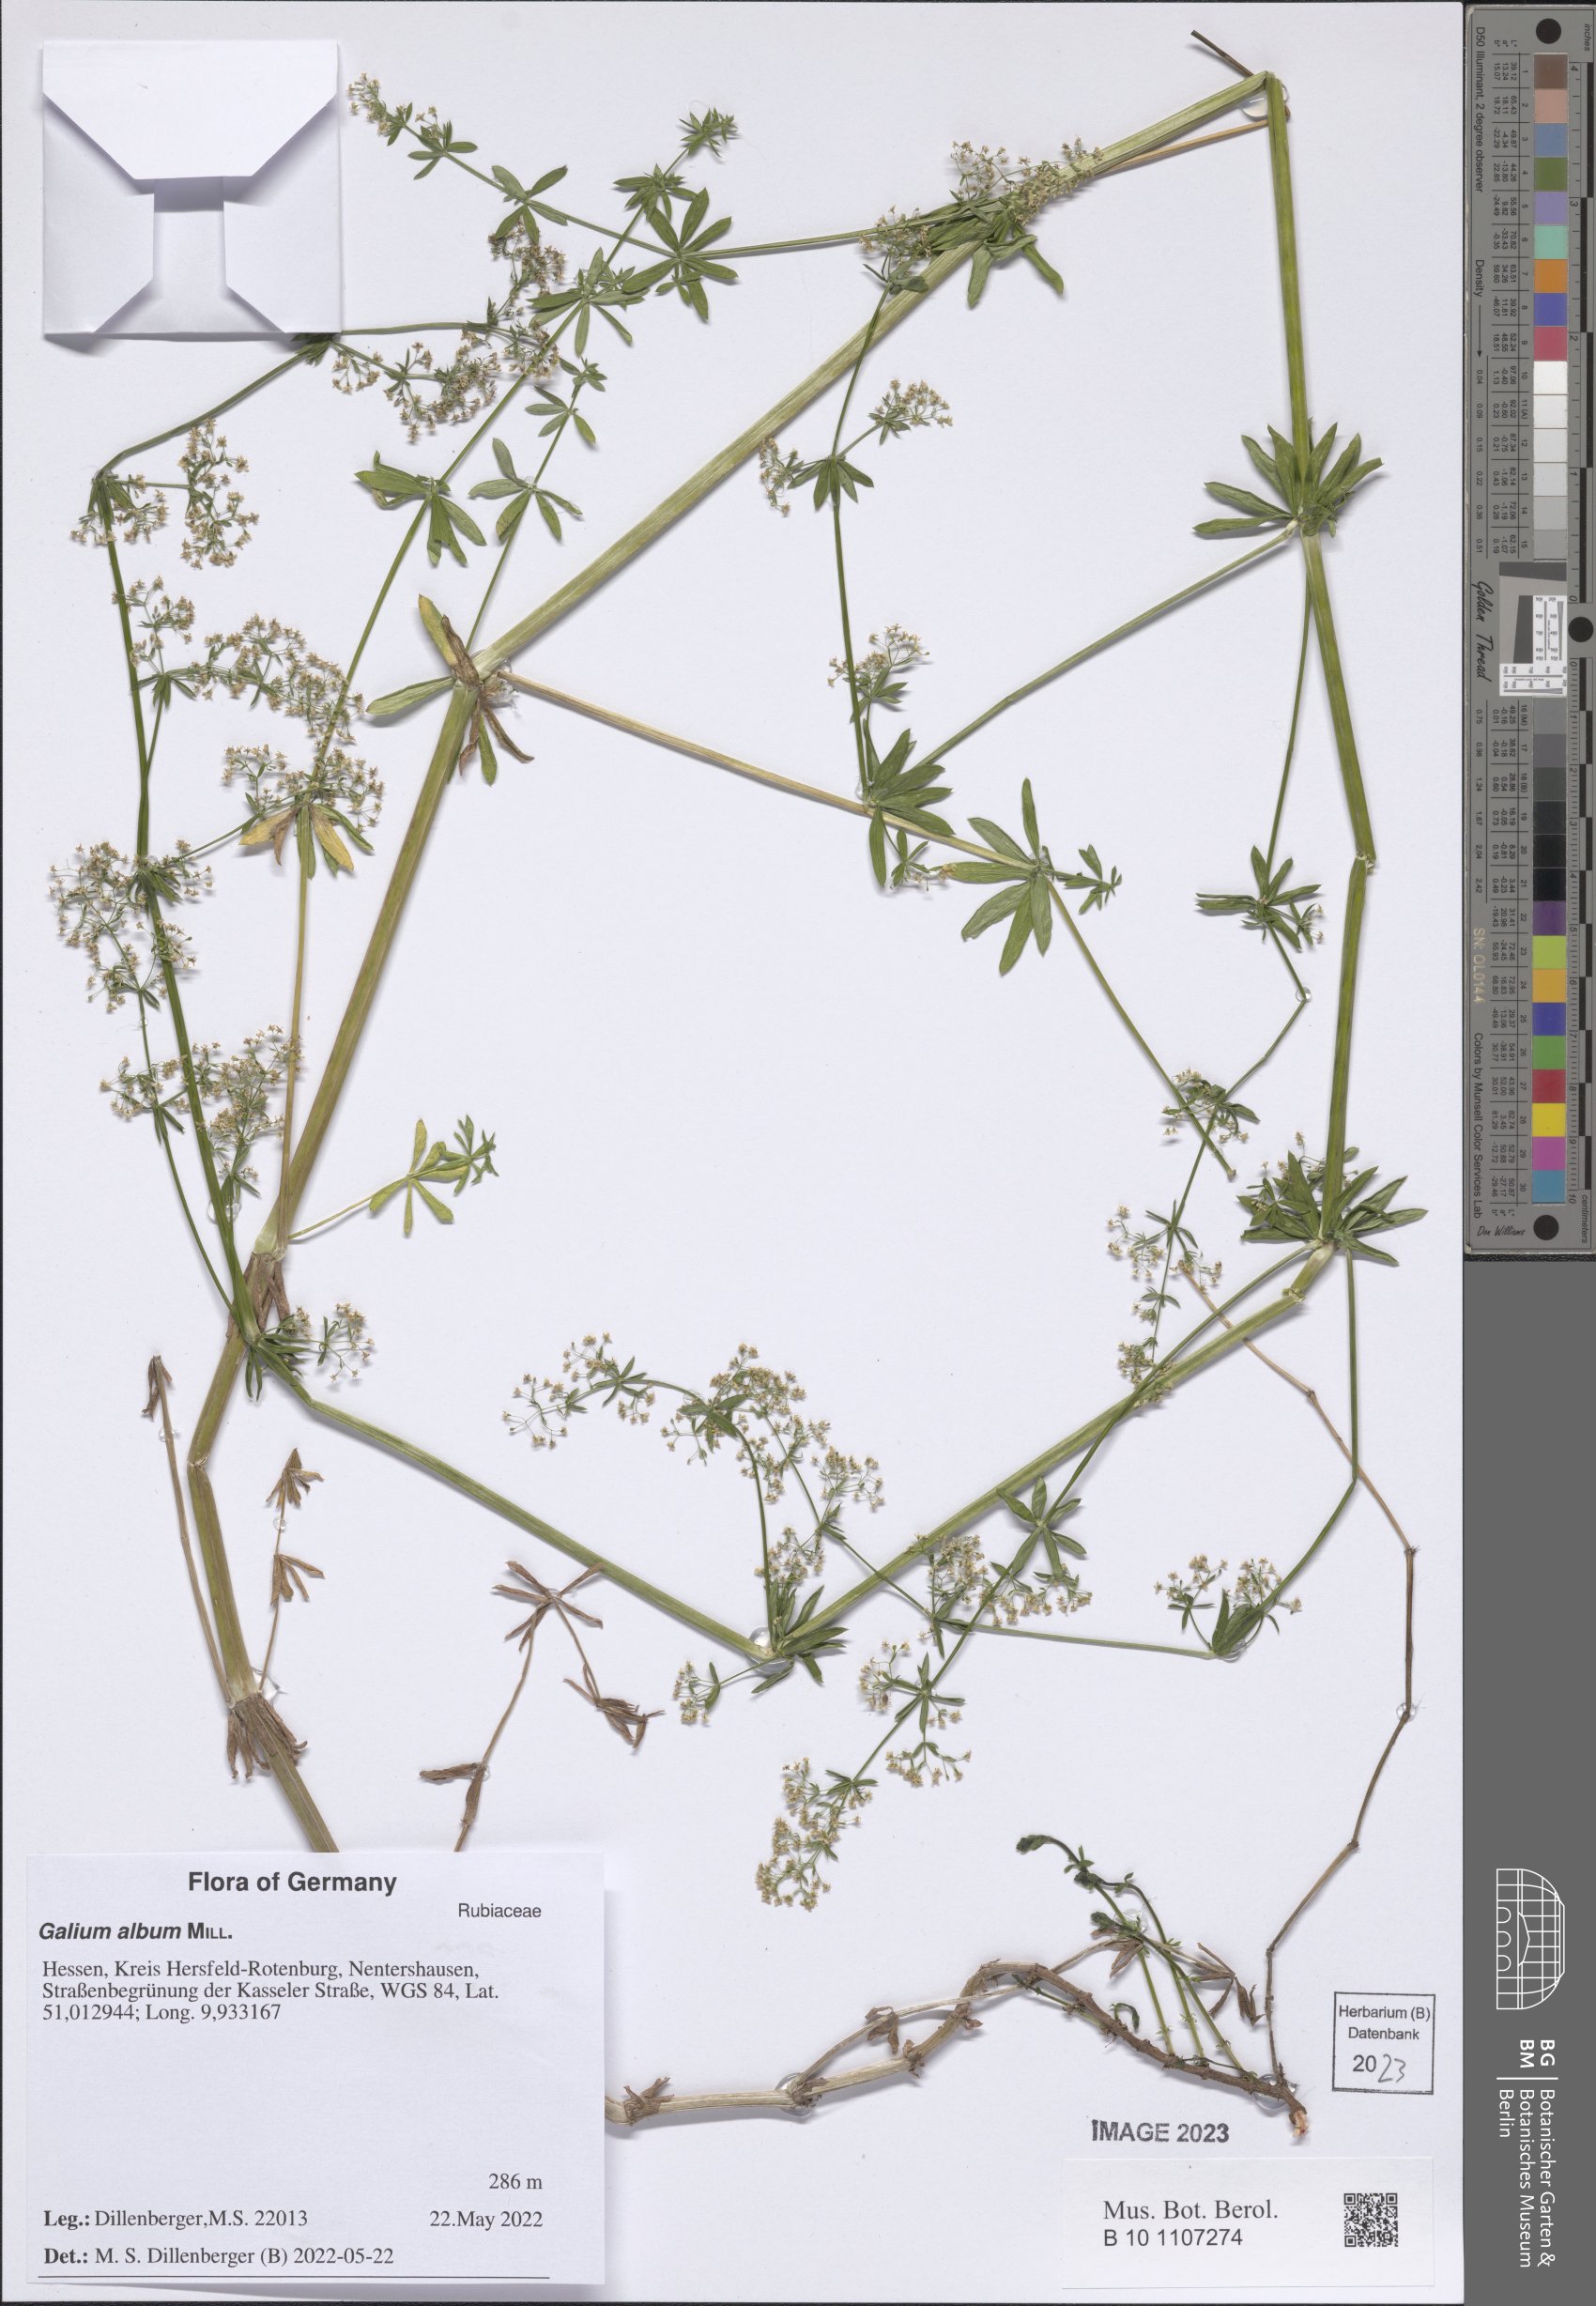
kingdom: Plantae
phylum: Tracheophyta
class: Magnoliopsida
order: Gentianales
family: Rubiaceae
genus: Galium
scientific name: Galium album
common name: White bedstraw
